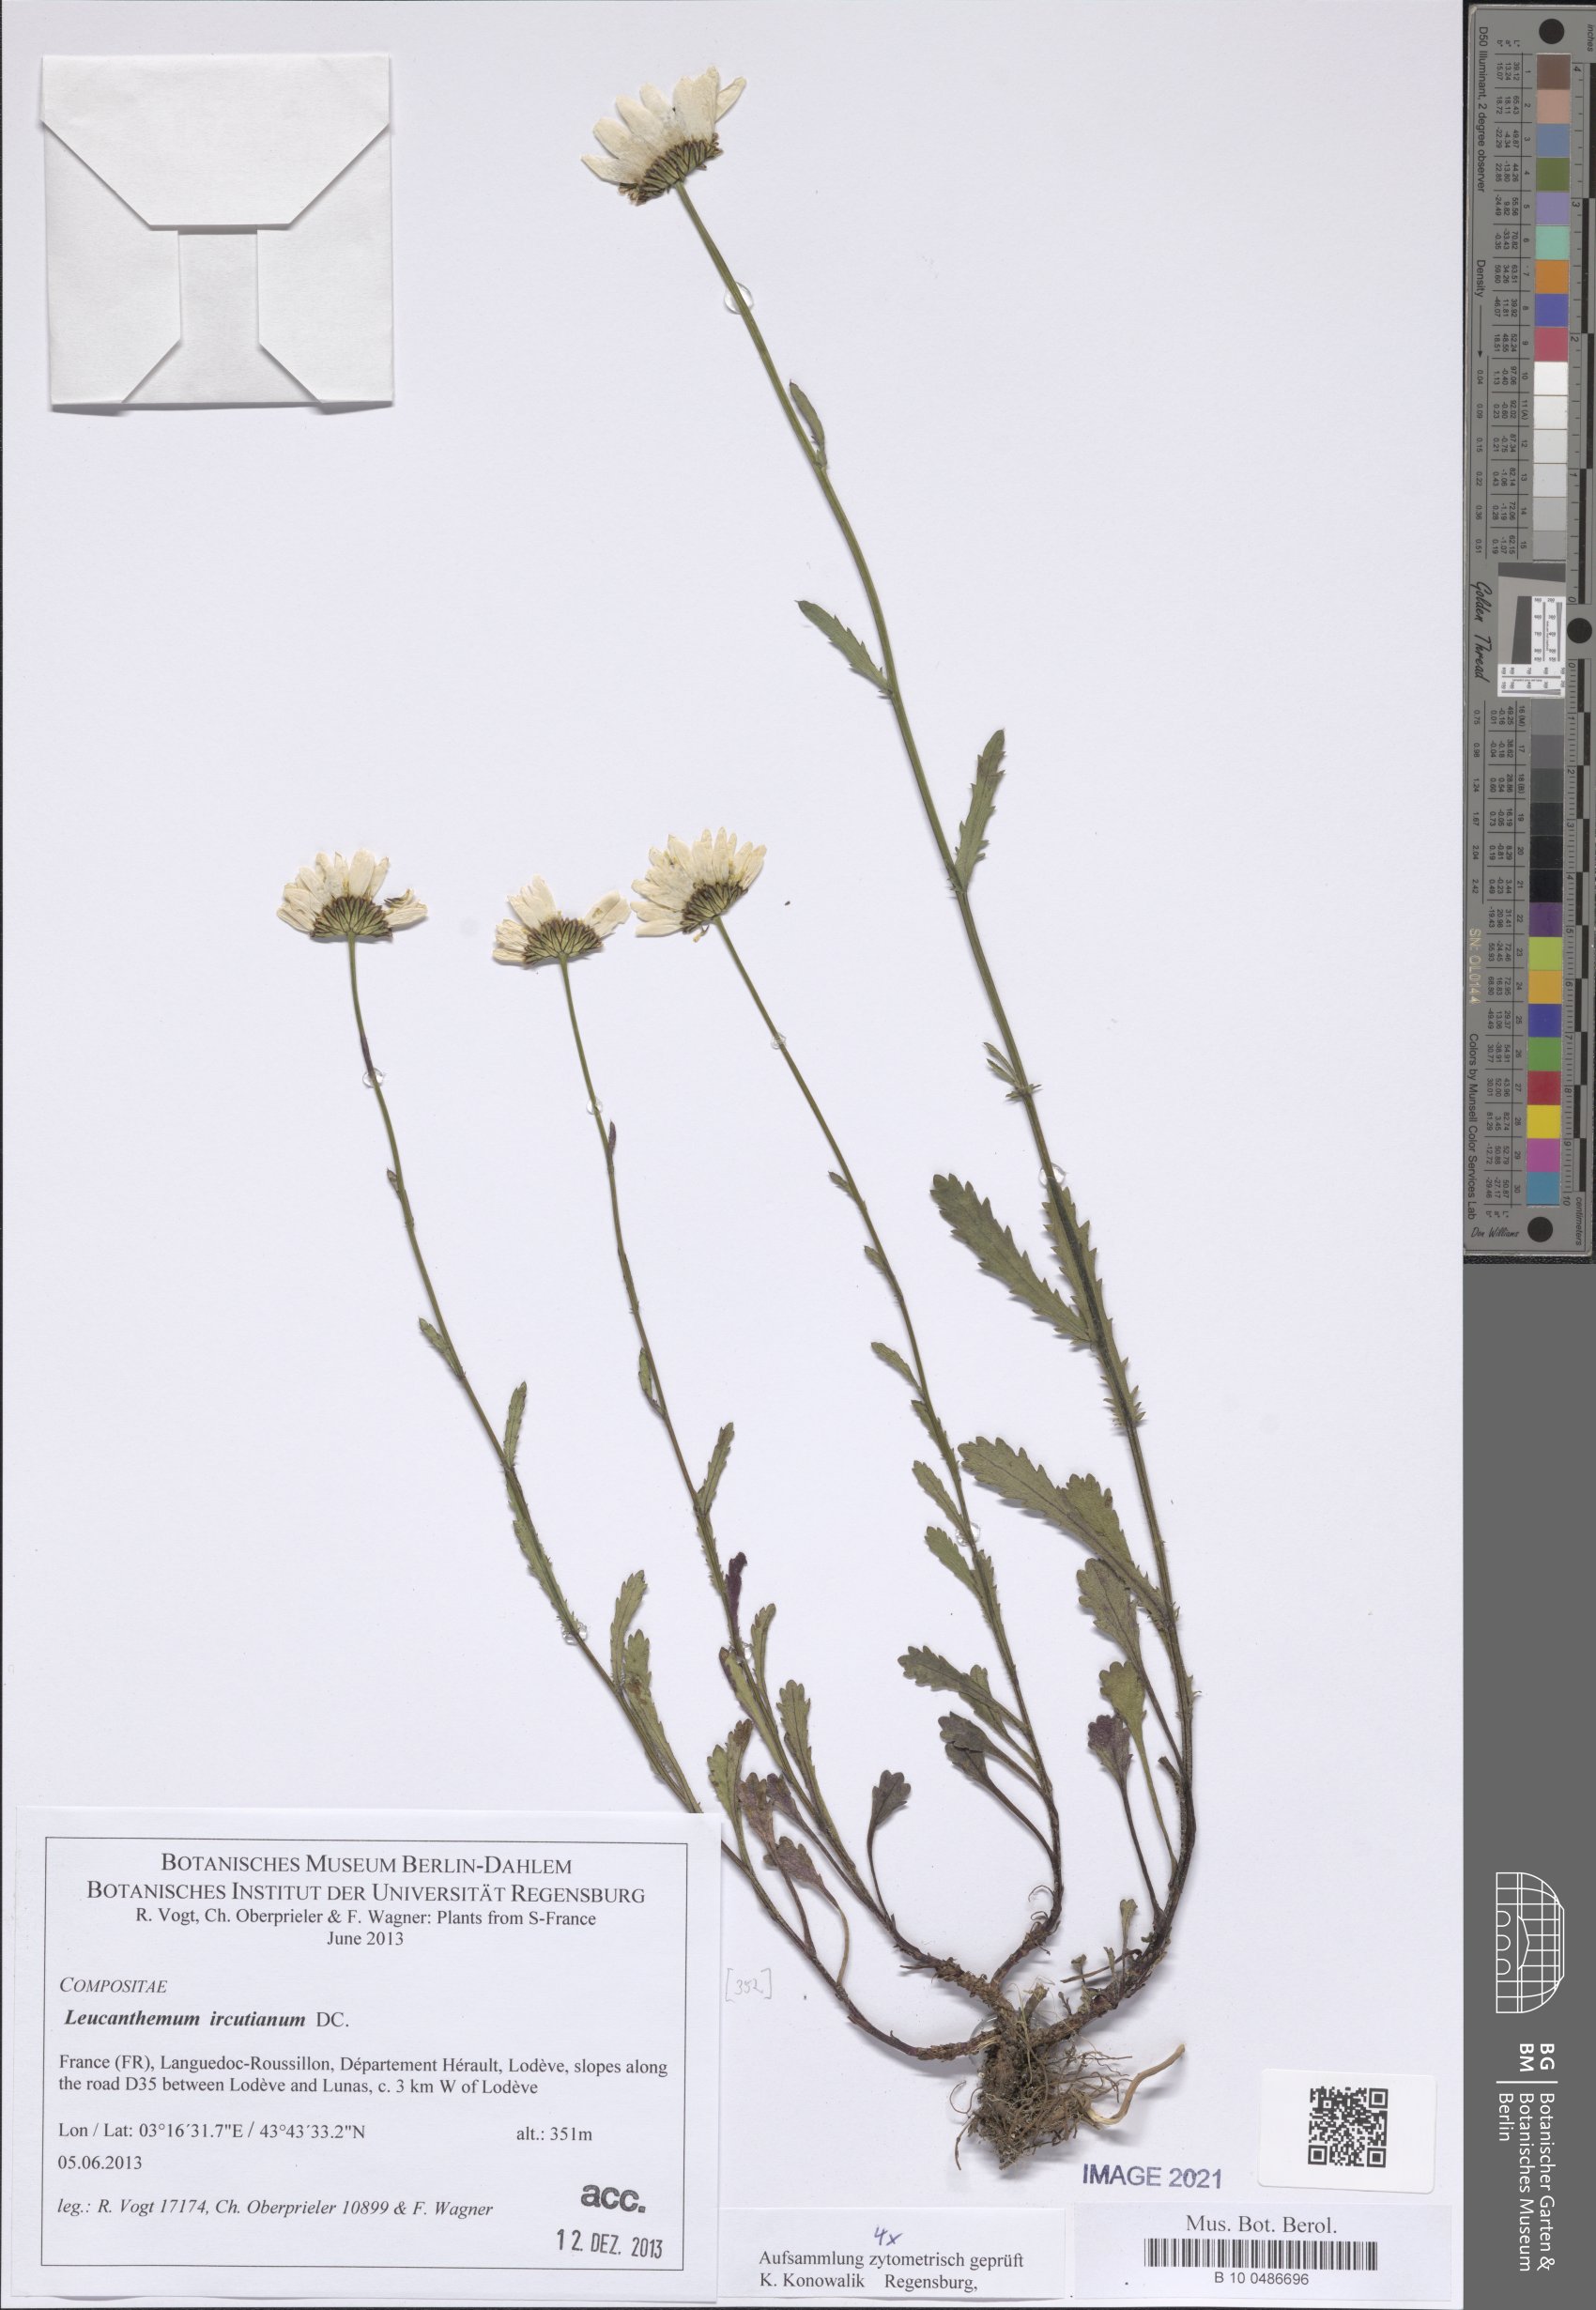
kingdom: Plantae
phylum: Tracheophyta
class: Magnoliopsida
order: Asterales
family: Asteraceae
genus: Leucanthemum
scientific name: Leucanthemum ircutianum
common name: Daisy
